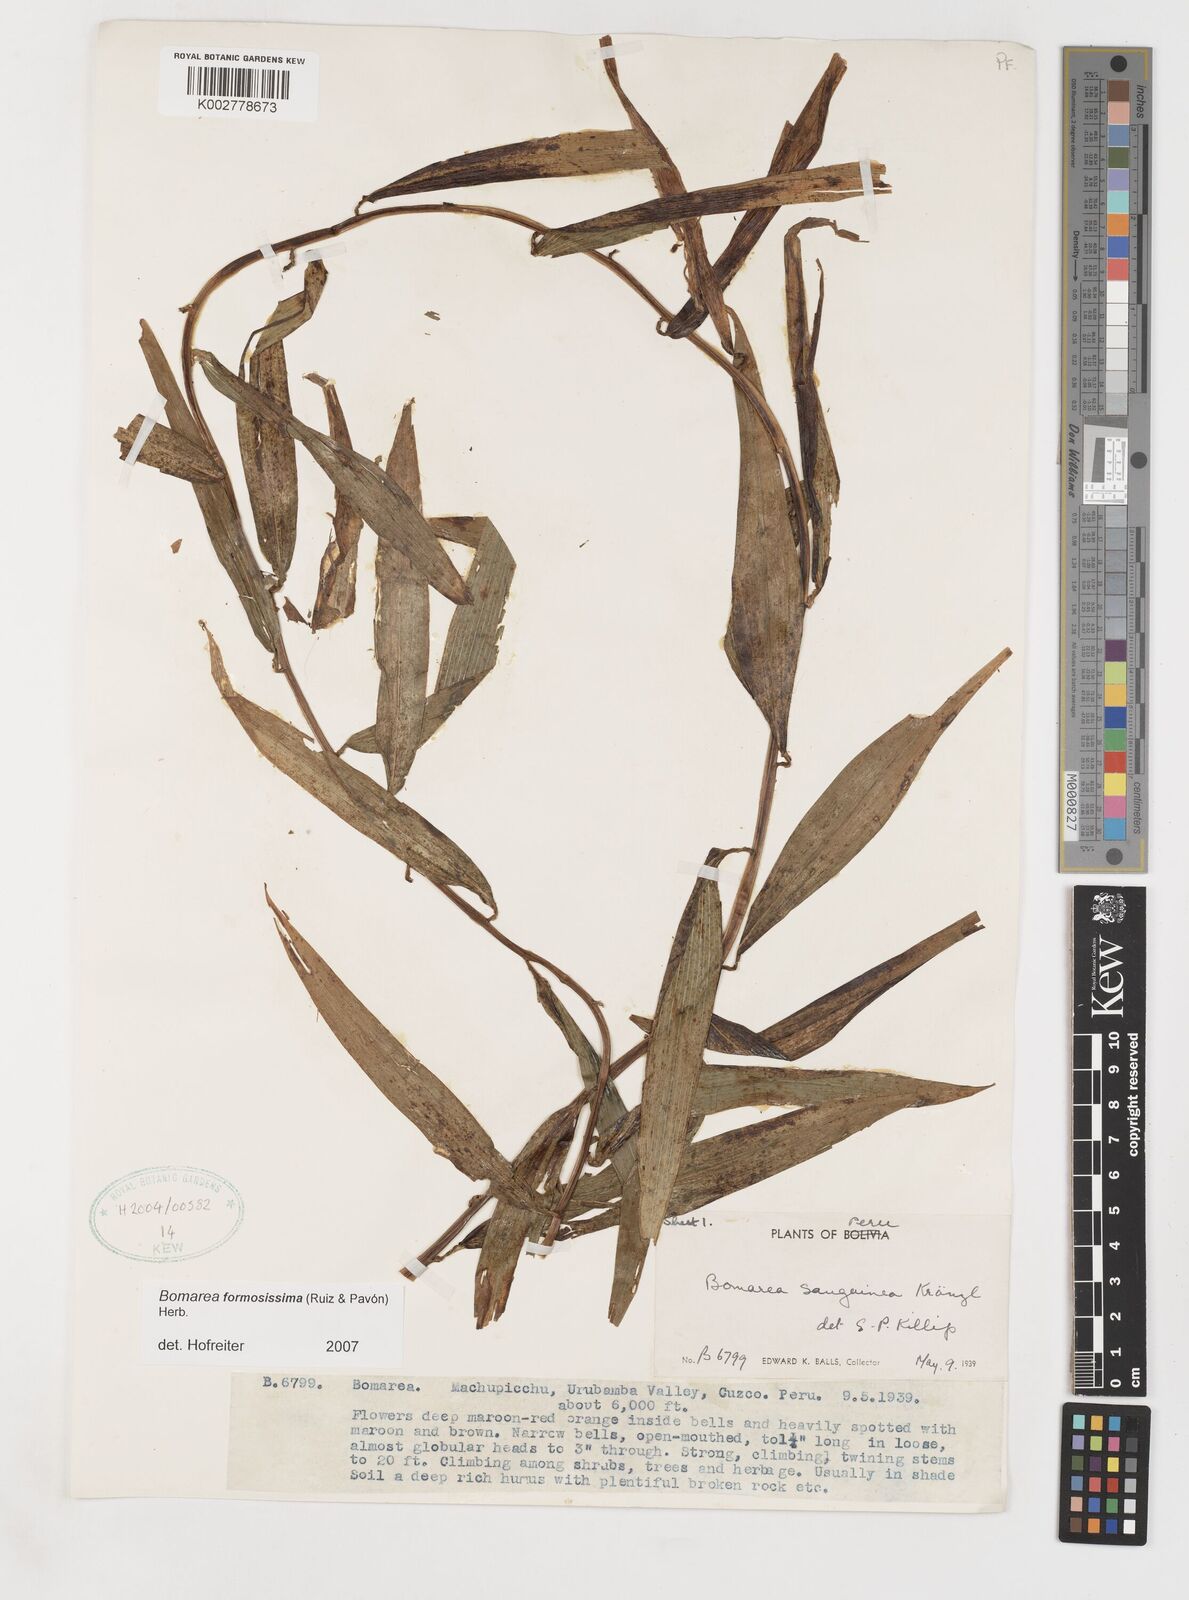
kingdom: Plantae
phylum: Tracheophyta
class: Liliopsida
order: Liliales
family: Alstroemeriaceae
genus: Bomarea
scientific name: Bomarea formosissima
